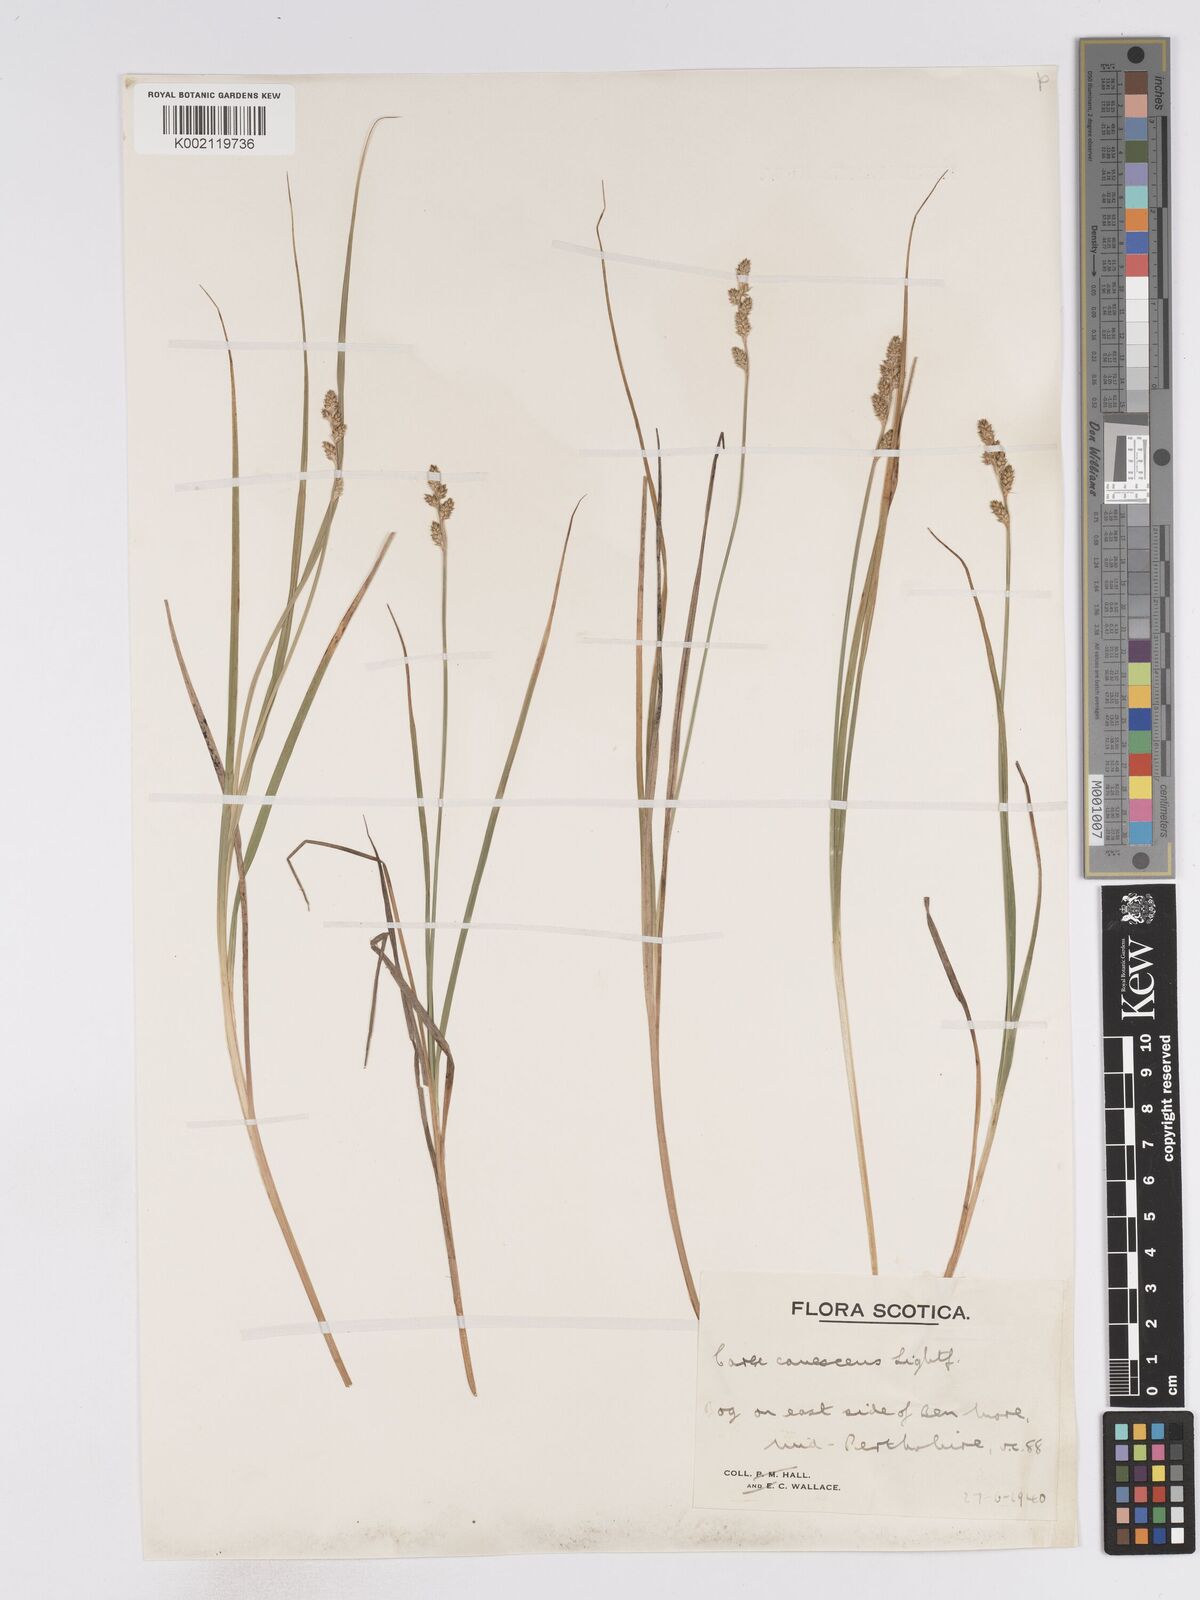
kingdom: Plantae
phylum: Tracheophyta
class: Liliopsida
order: Poales
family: Cyperaceae
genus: Carex
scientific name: Carex curta
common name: White sedge
